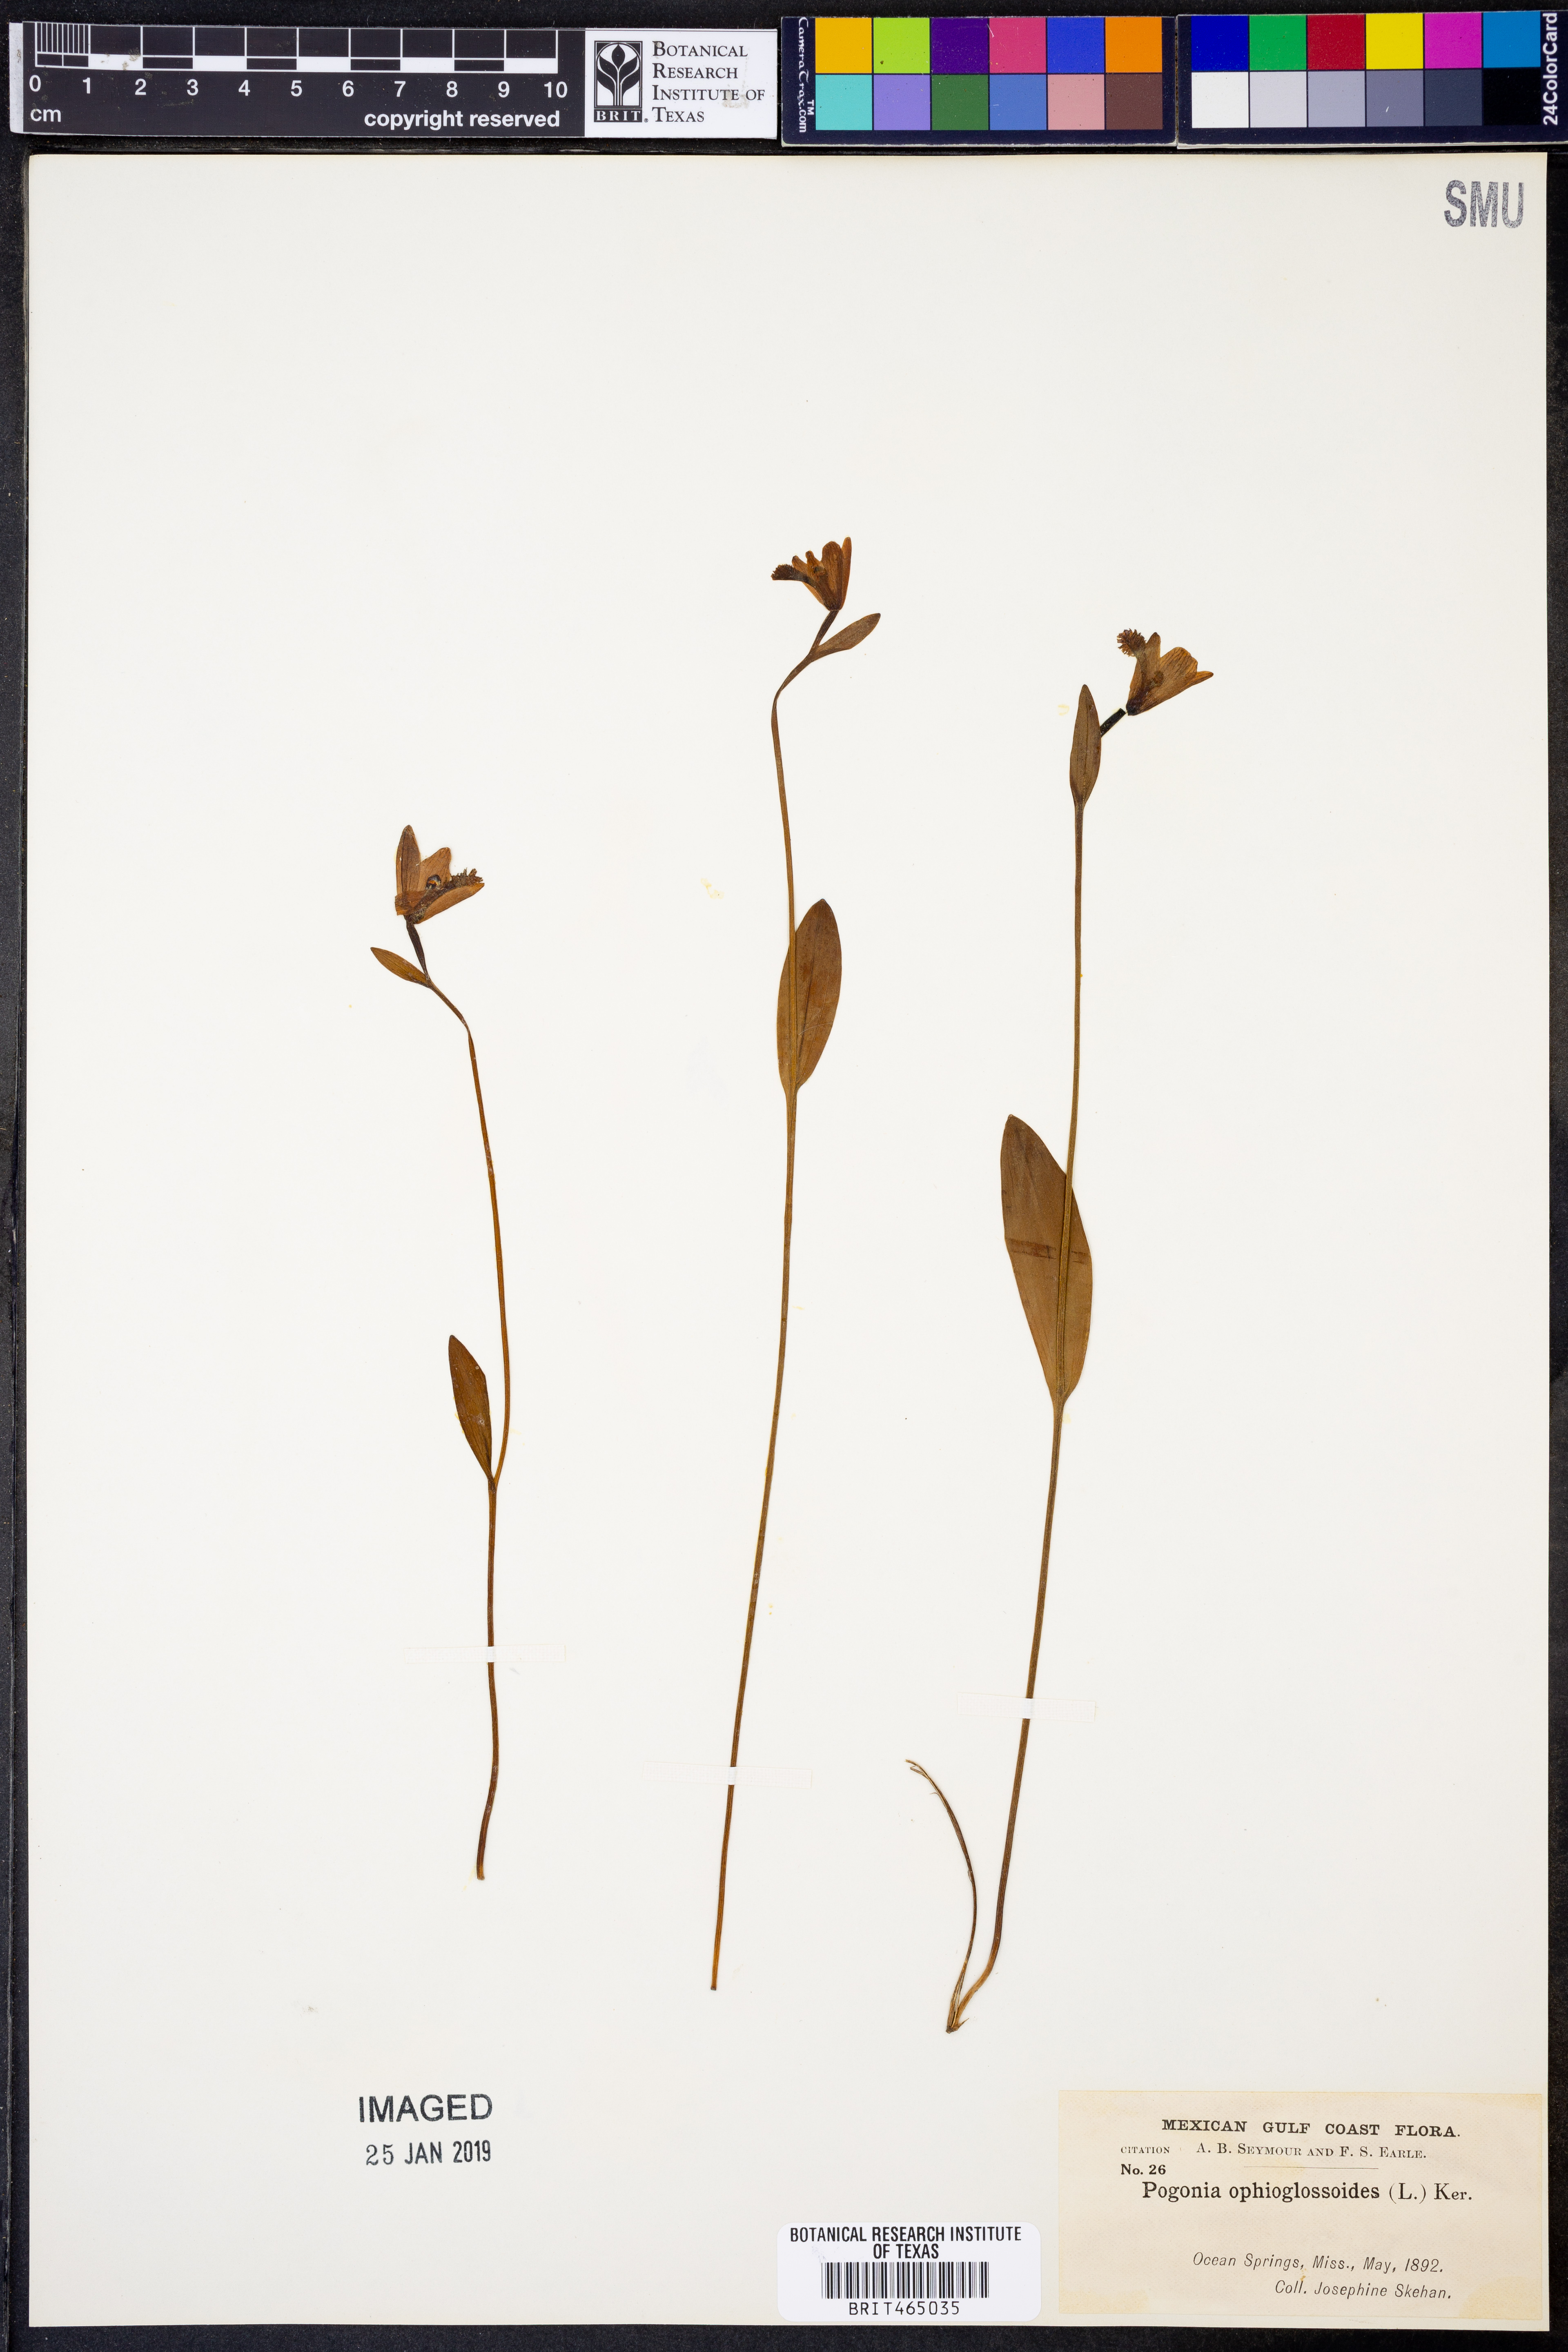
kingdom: Plantae
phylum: Tracheophyta
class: Liliopsida
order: Asparagales
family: Orchidaceae
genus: Pogonia
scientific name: Pogonia ophioglossoides
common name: Rose pogonia
